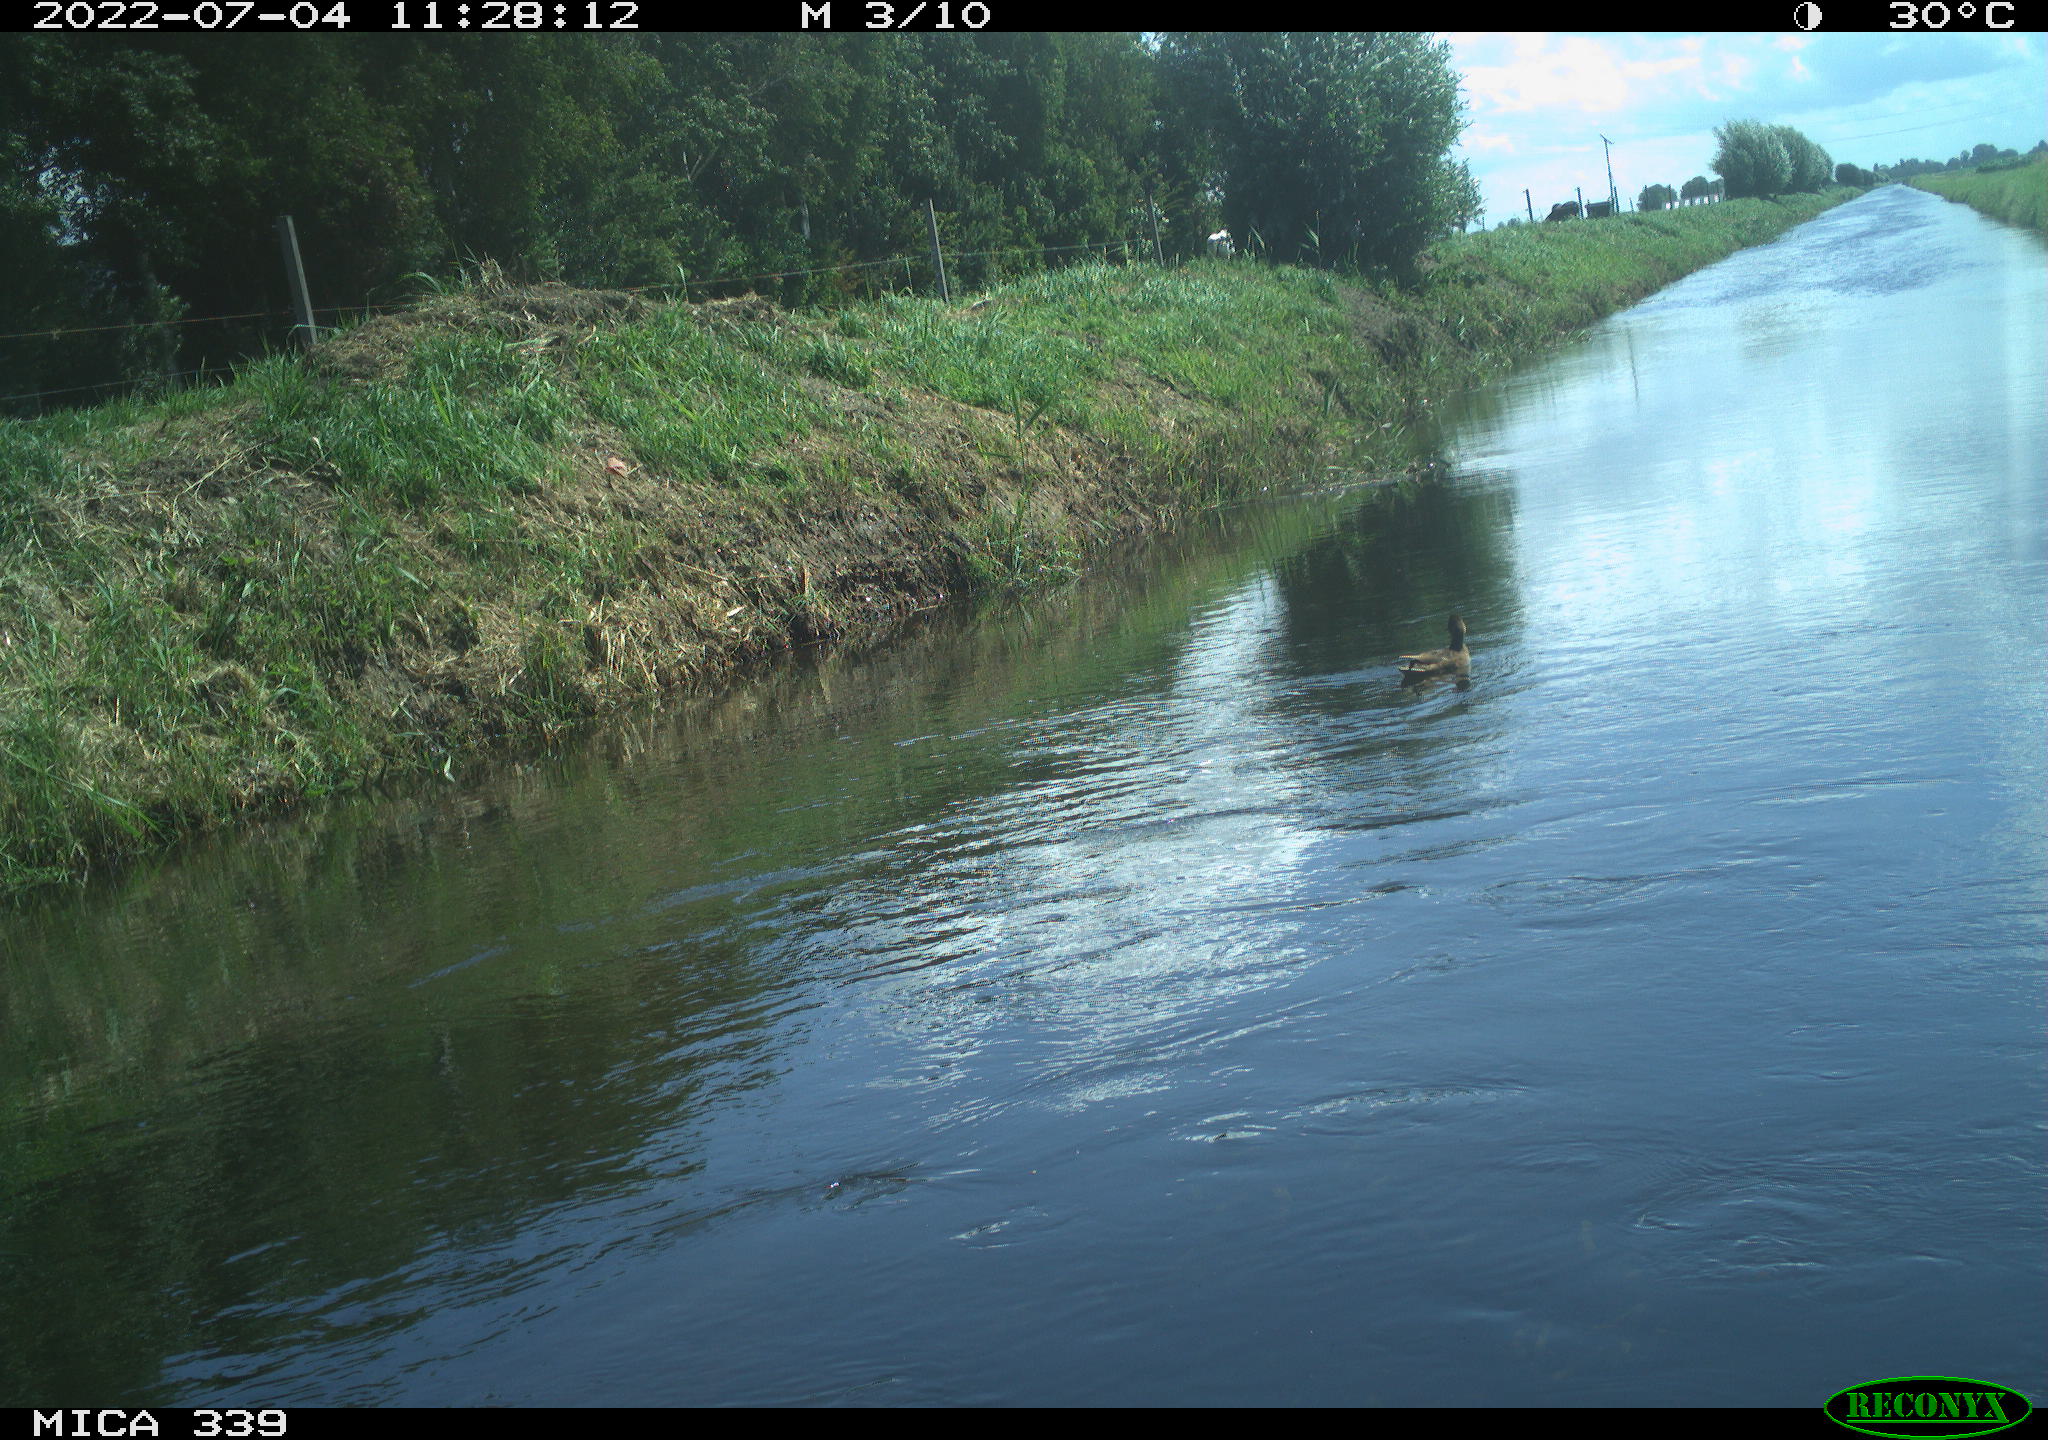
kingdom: Animalia
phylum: Chordata
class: Aves
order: Anseriformes
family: Anatidae
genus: Anas
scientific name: Anas platyrhynchos
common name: Mallard
